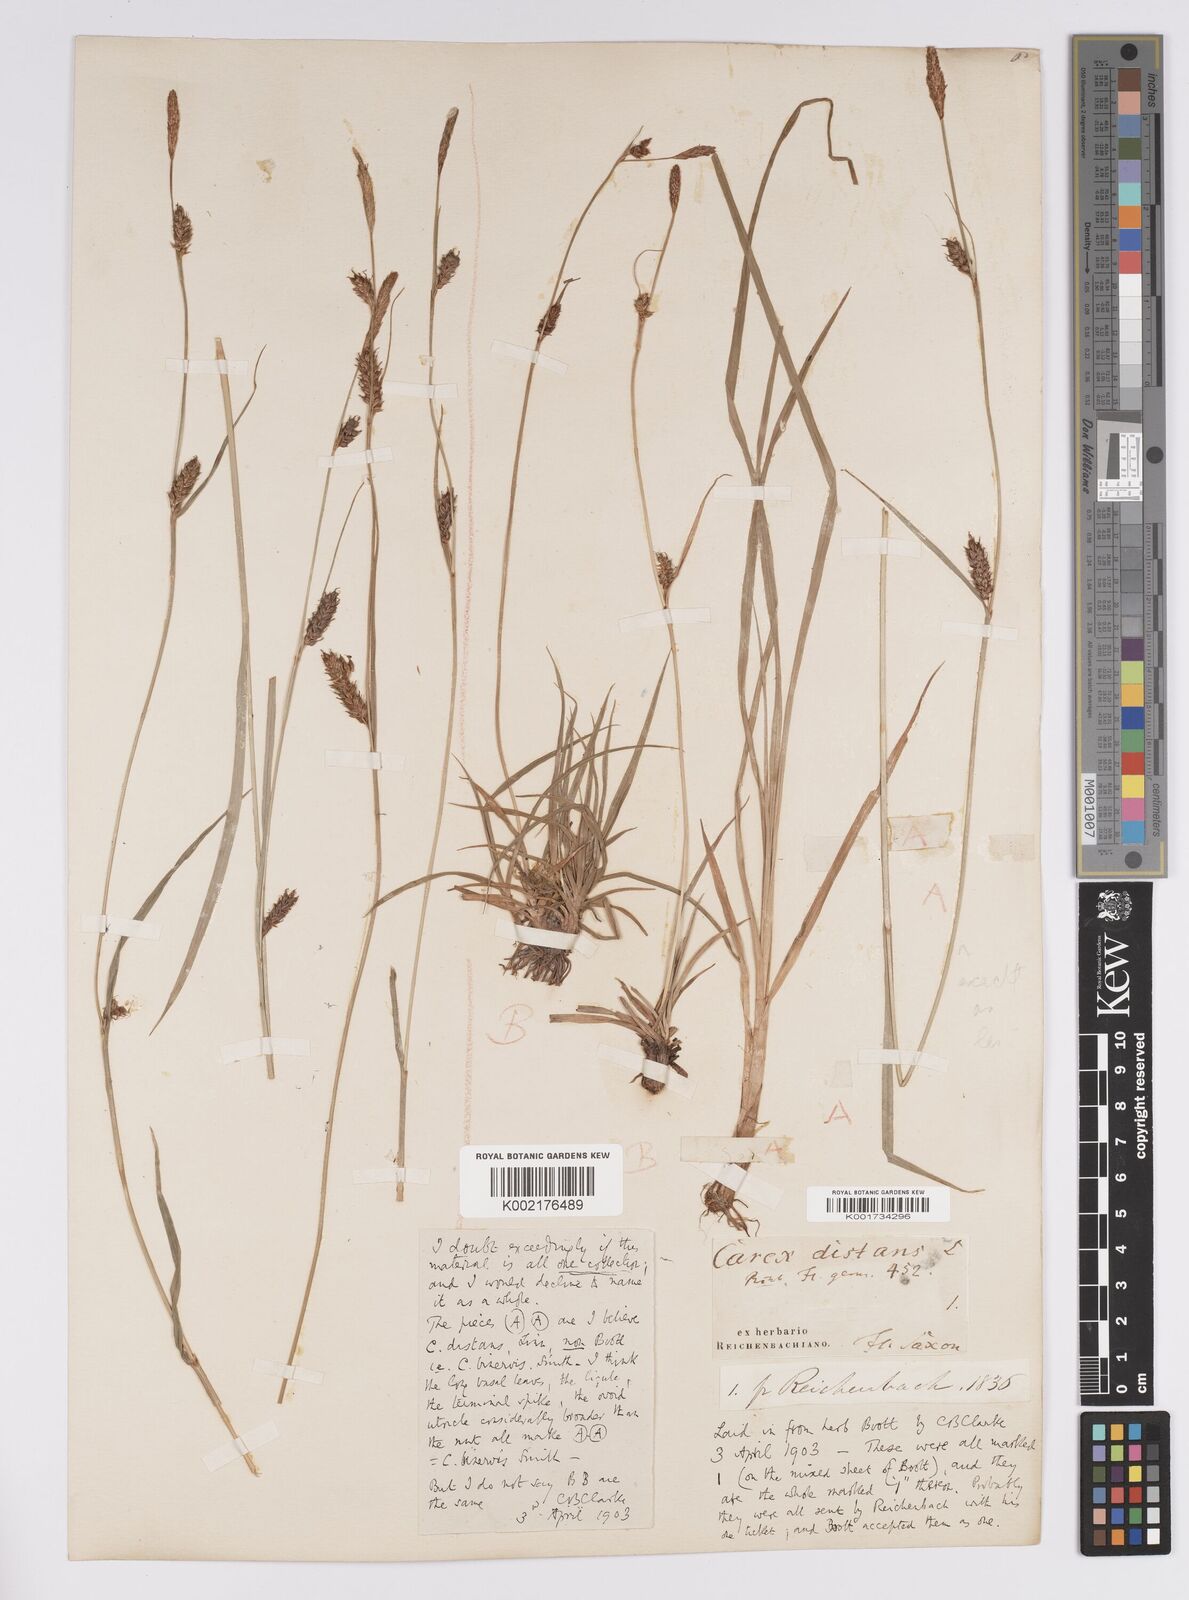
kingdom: Plantae
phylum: Tracheophyta
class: Liliopsida
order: Poales
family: Cyperaceae
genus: Carex
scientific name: Carex distans
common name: Distant sedge
